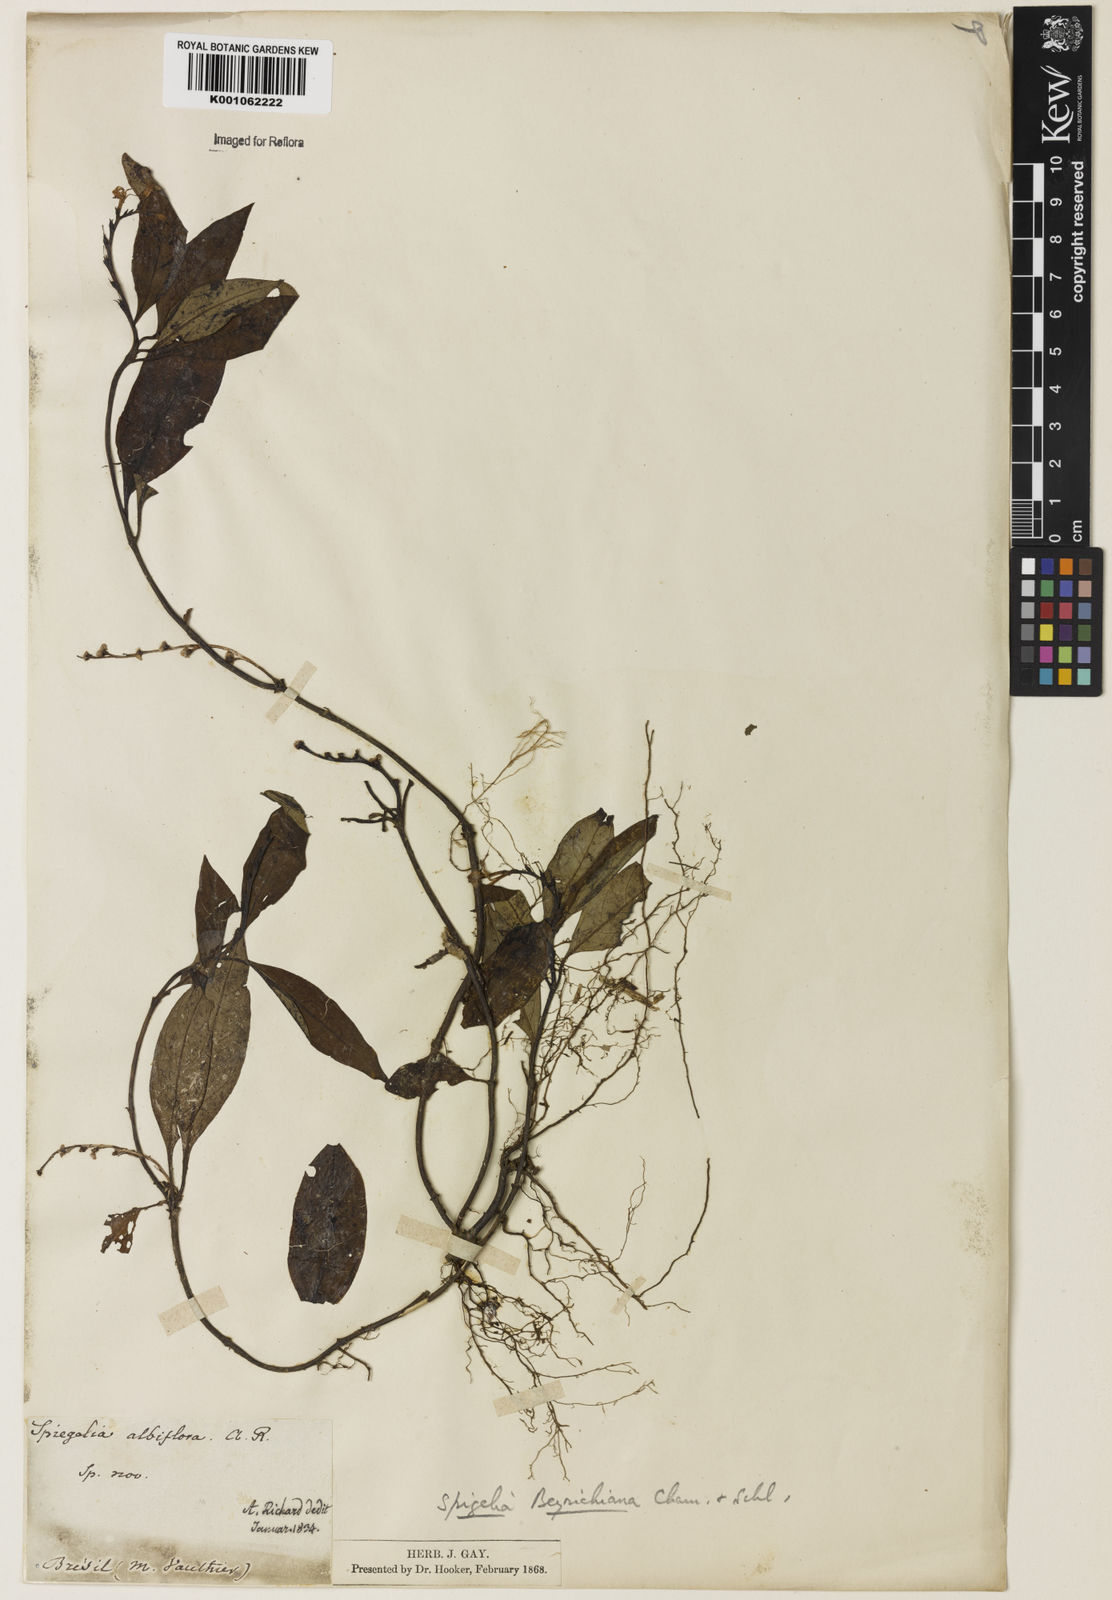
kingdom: Plantae
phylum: Tracheophyta
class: Magnoliopsida
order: Gentianales
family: Loganiaceae
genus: Spigelia
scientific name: Spigelia beyrichiana
